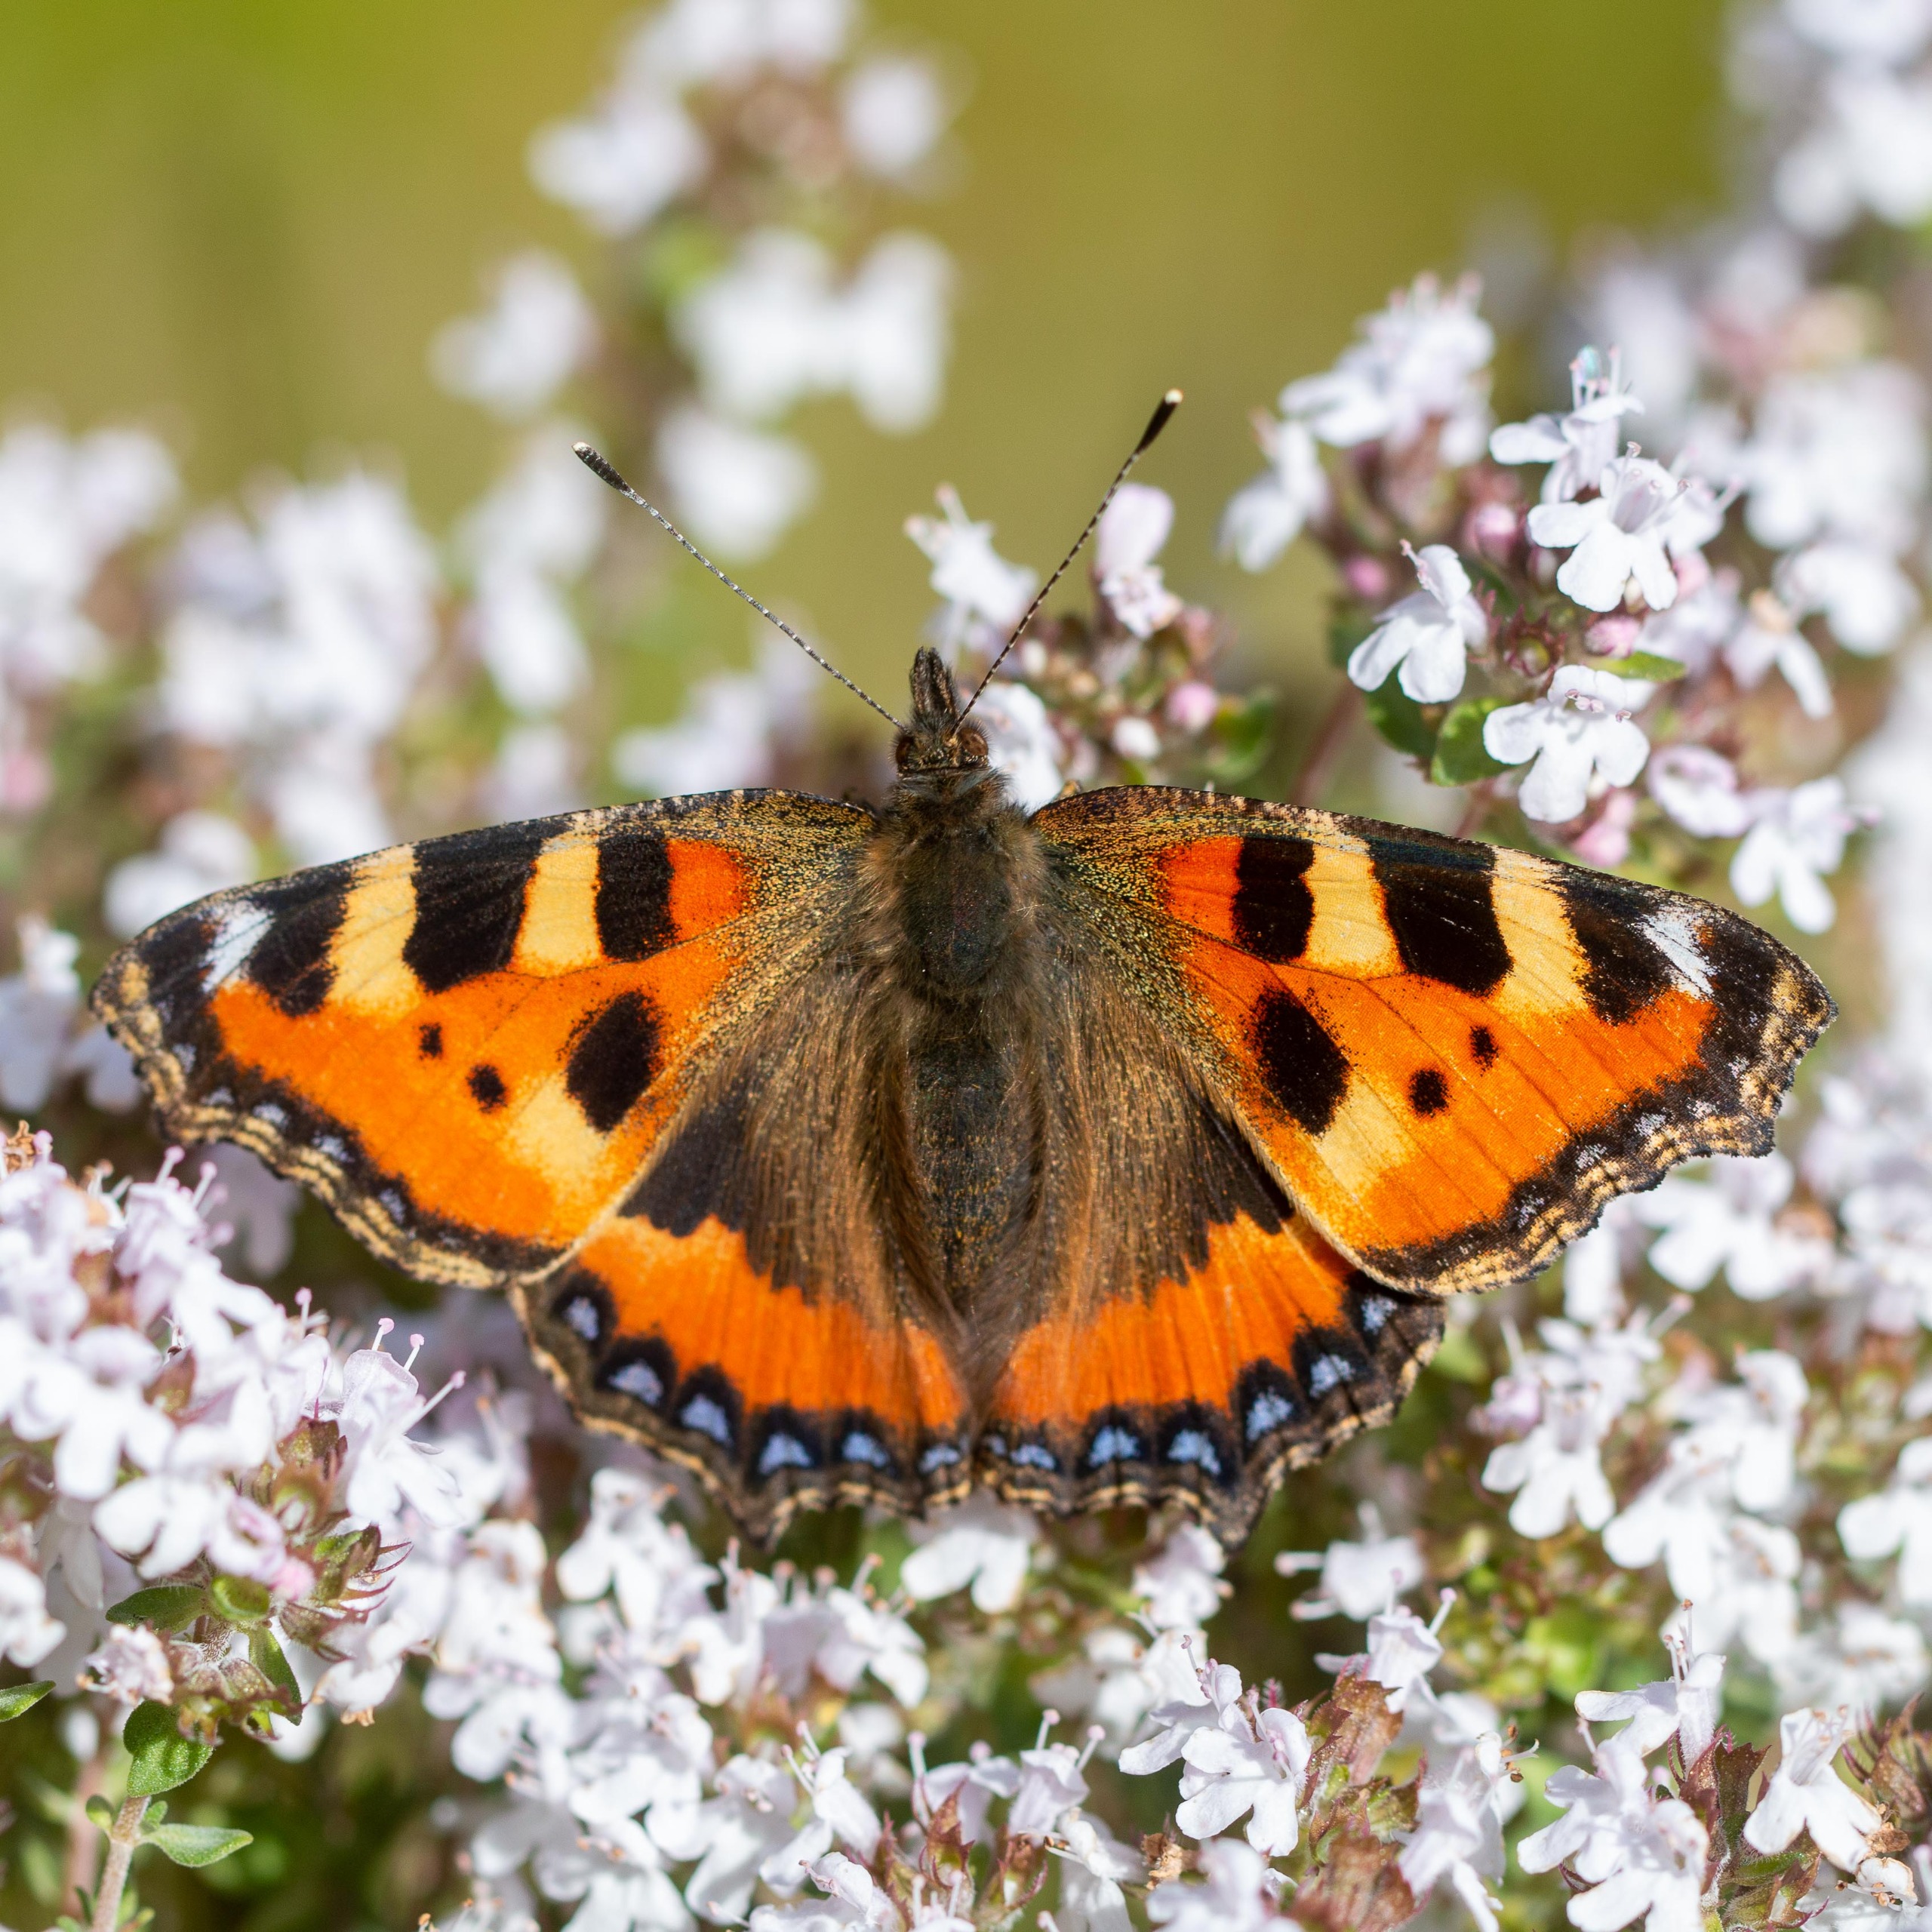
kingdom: Animalia
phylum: Arthropoda
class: Insecta
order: Lepidoptera
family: Nymphalidae
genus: Aglais
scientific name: Aglais urticae
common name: Nældens takvinge
